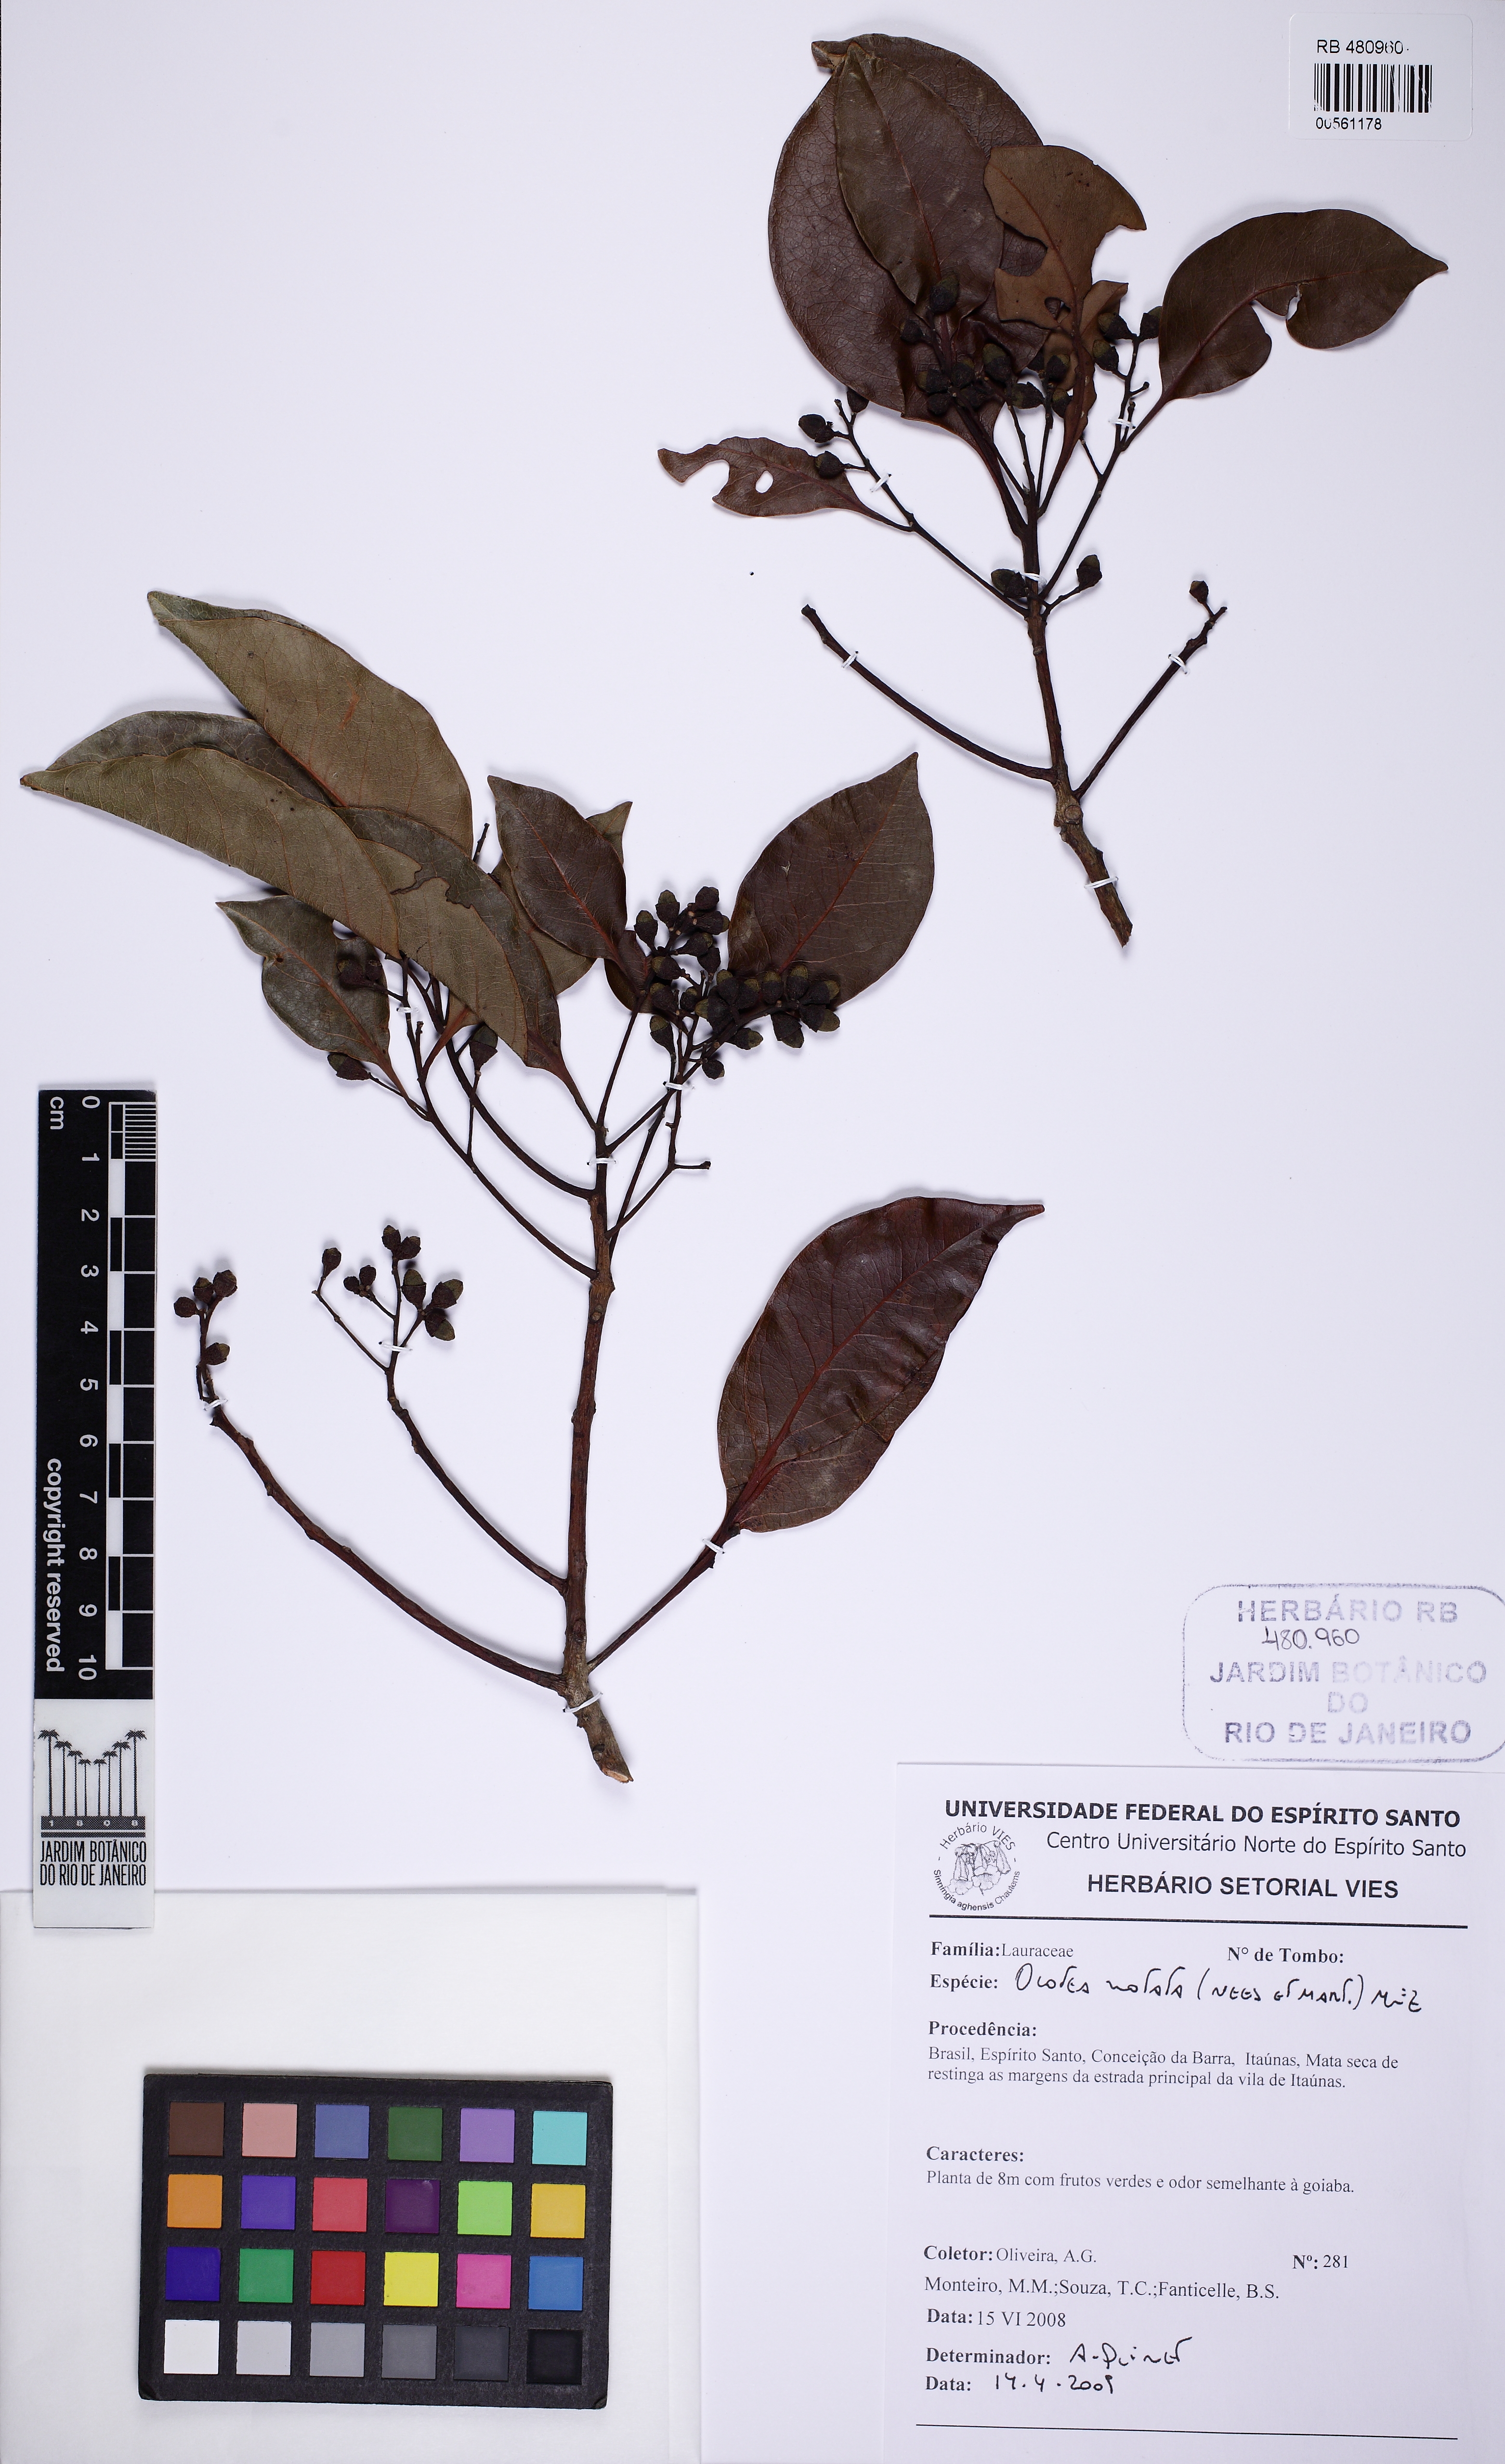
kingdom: Plantae
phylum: Tracheophyta
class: Magnoliopsida
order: Laurales
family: Lauraceae
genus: Mespilodaphne
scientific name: Mespilodaphne notata
